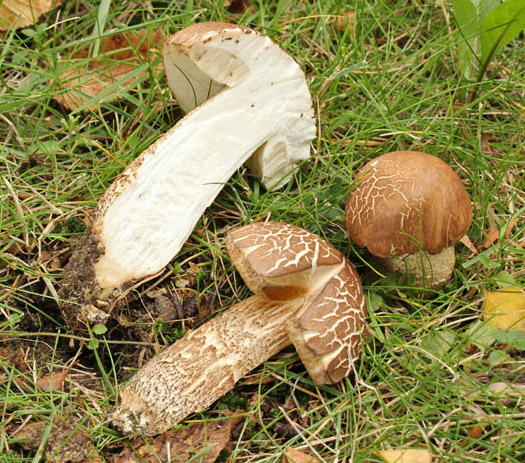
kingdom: Fungi
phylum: Basidiomycota
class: Agaricomycetes
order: Boletales
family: Boletaceae
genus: Leccinum
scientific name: Leccinum scabrum
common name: brun skælrørhat
